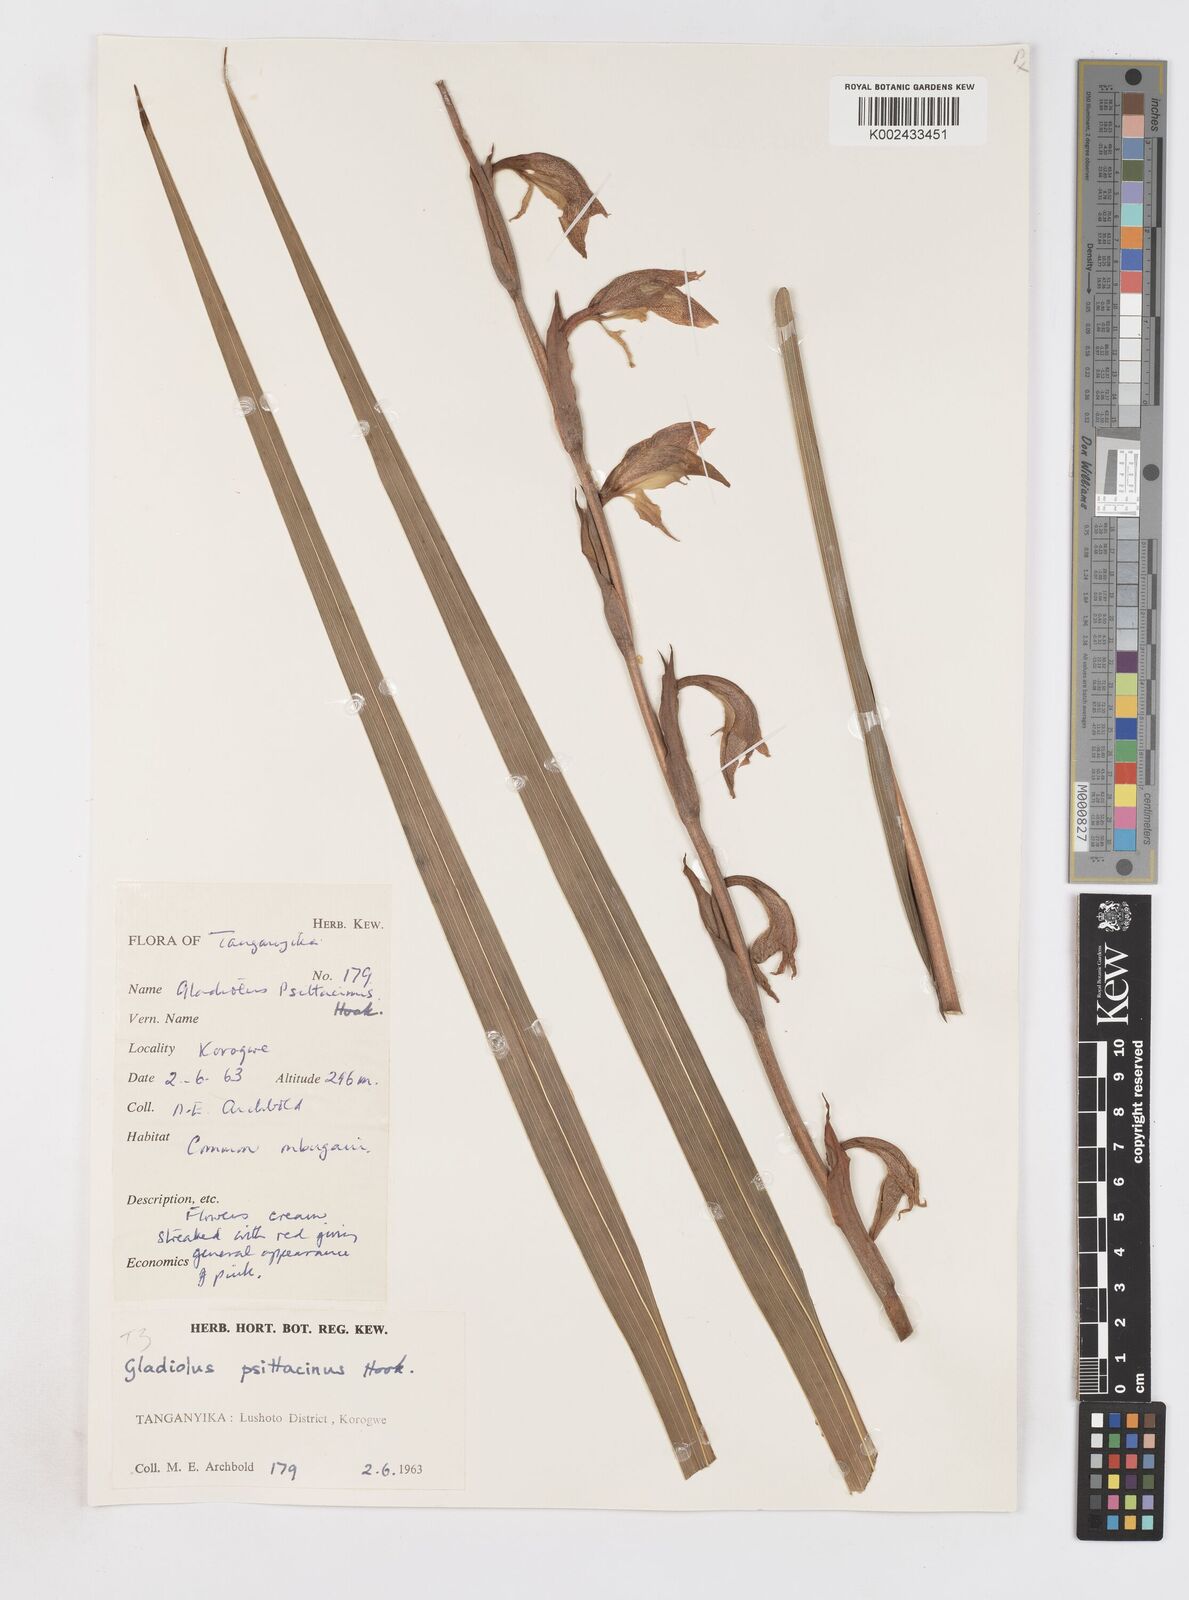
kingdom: Plantae
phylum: Tracheophyta
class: Liliopsida
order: Asparagales
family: Iridaceae
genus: Gladiolus
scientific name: Gladiolus dalenii
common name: Cornflag
